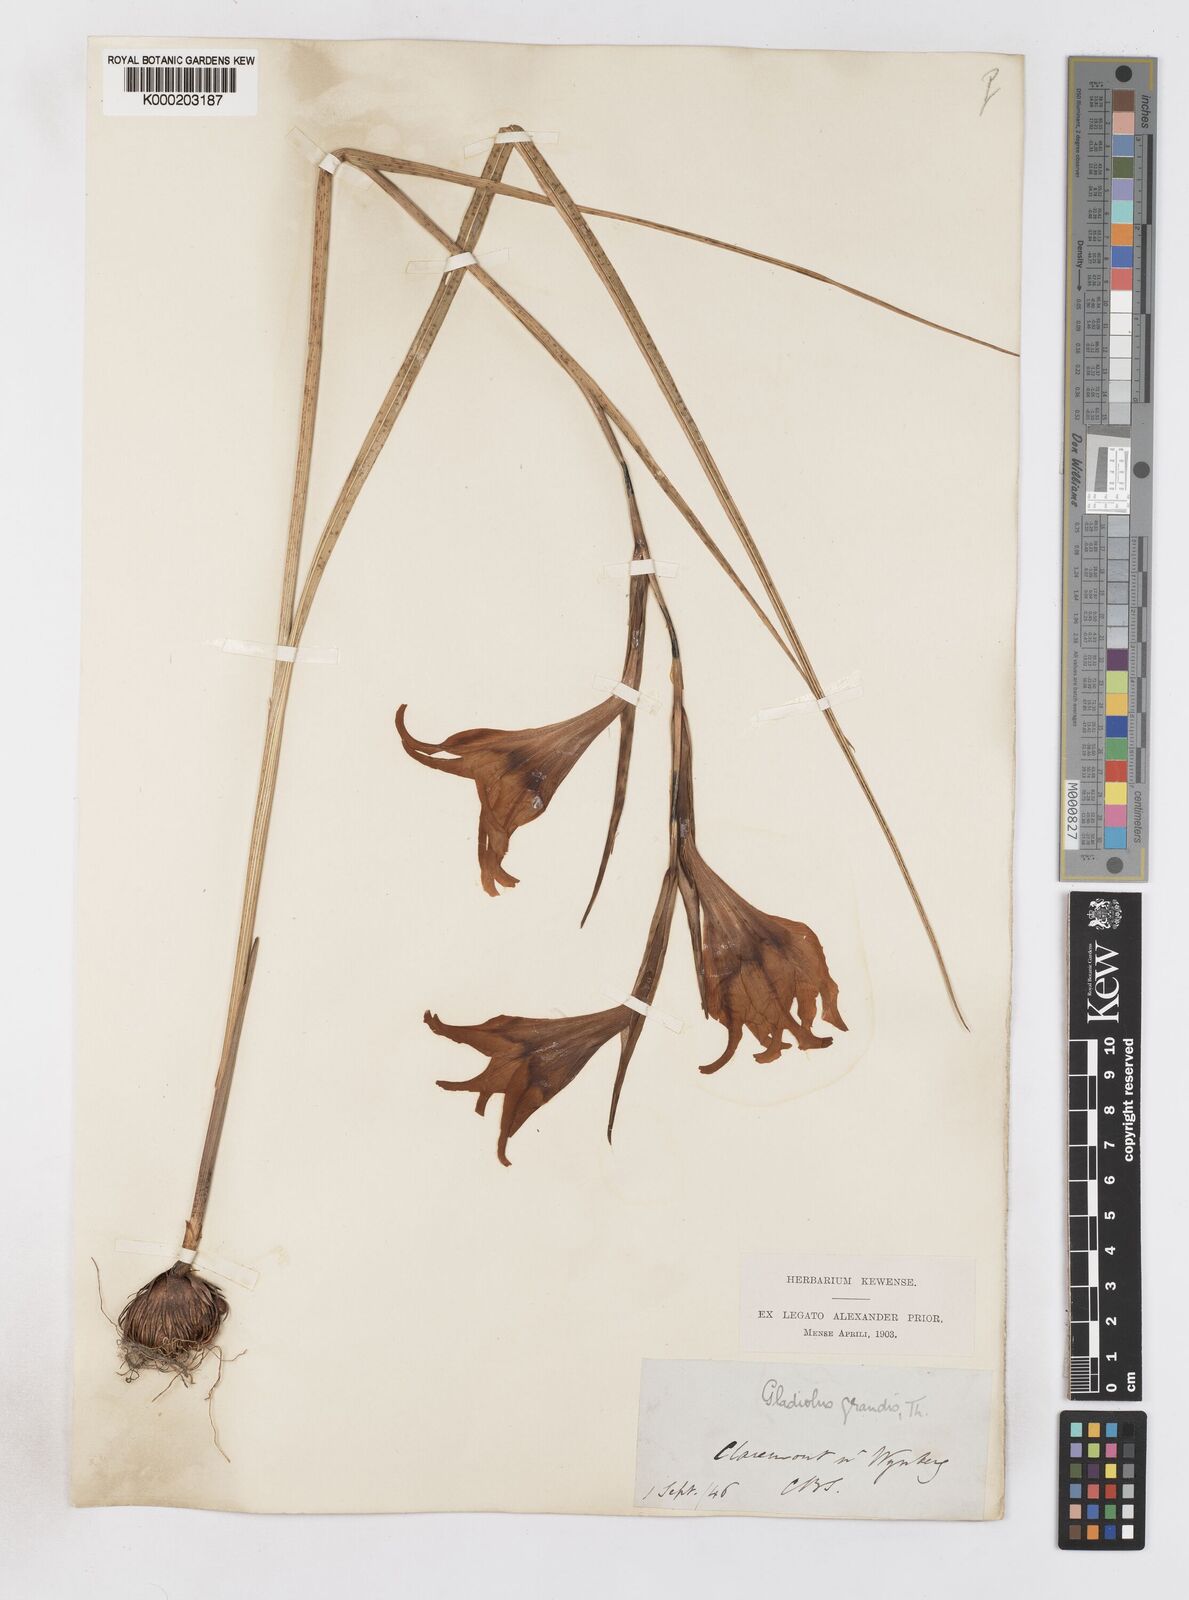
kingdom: Plantae
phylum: Tracheophyta
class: Liliopsida
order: Asparagales
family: Iridaceae
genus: Gladiolus
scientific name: Gladiolus liliaceus
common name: Large brown afrikaner
